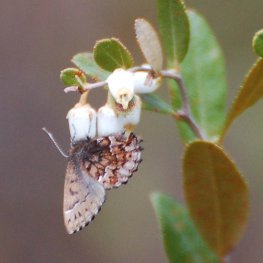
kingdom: Animalia
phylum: Arthropoda
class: Insecta
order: Lepidoptera
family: Lycaenidae
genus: Incisalia
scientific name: Incisalia lanoraieensis
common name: Bog Elfin
